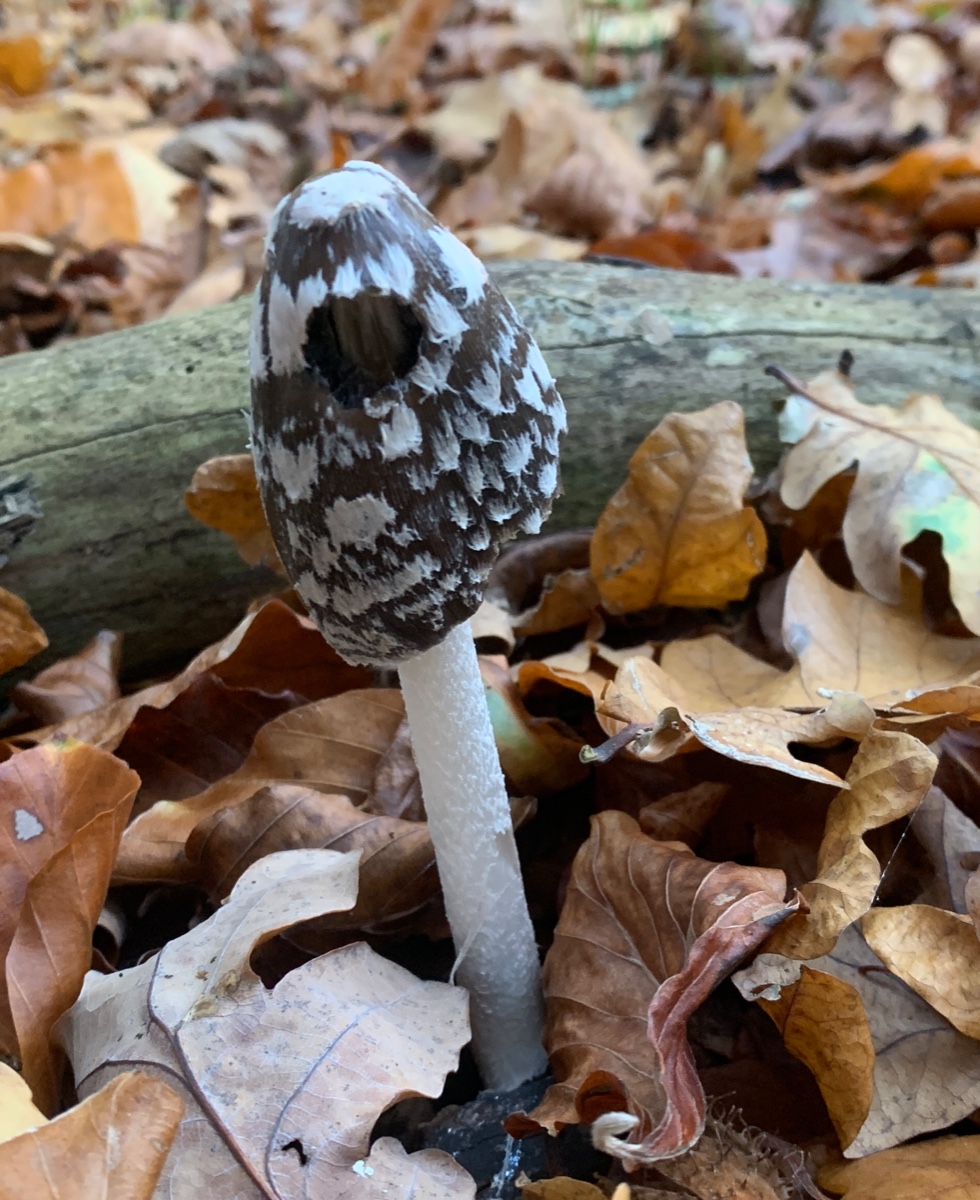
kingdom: Fungi
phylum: Basidiomycota
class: Agaricomycetes
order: Agaricales
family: Psathyrellaceae
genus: Coprinopsis
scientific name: Coprinopsis picacea
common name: skade-blækhat
